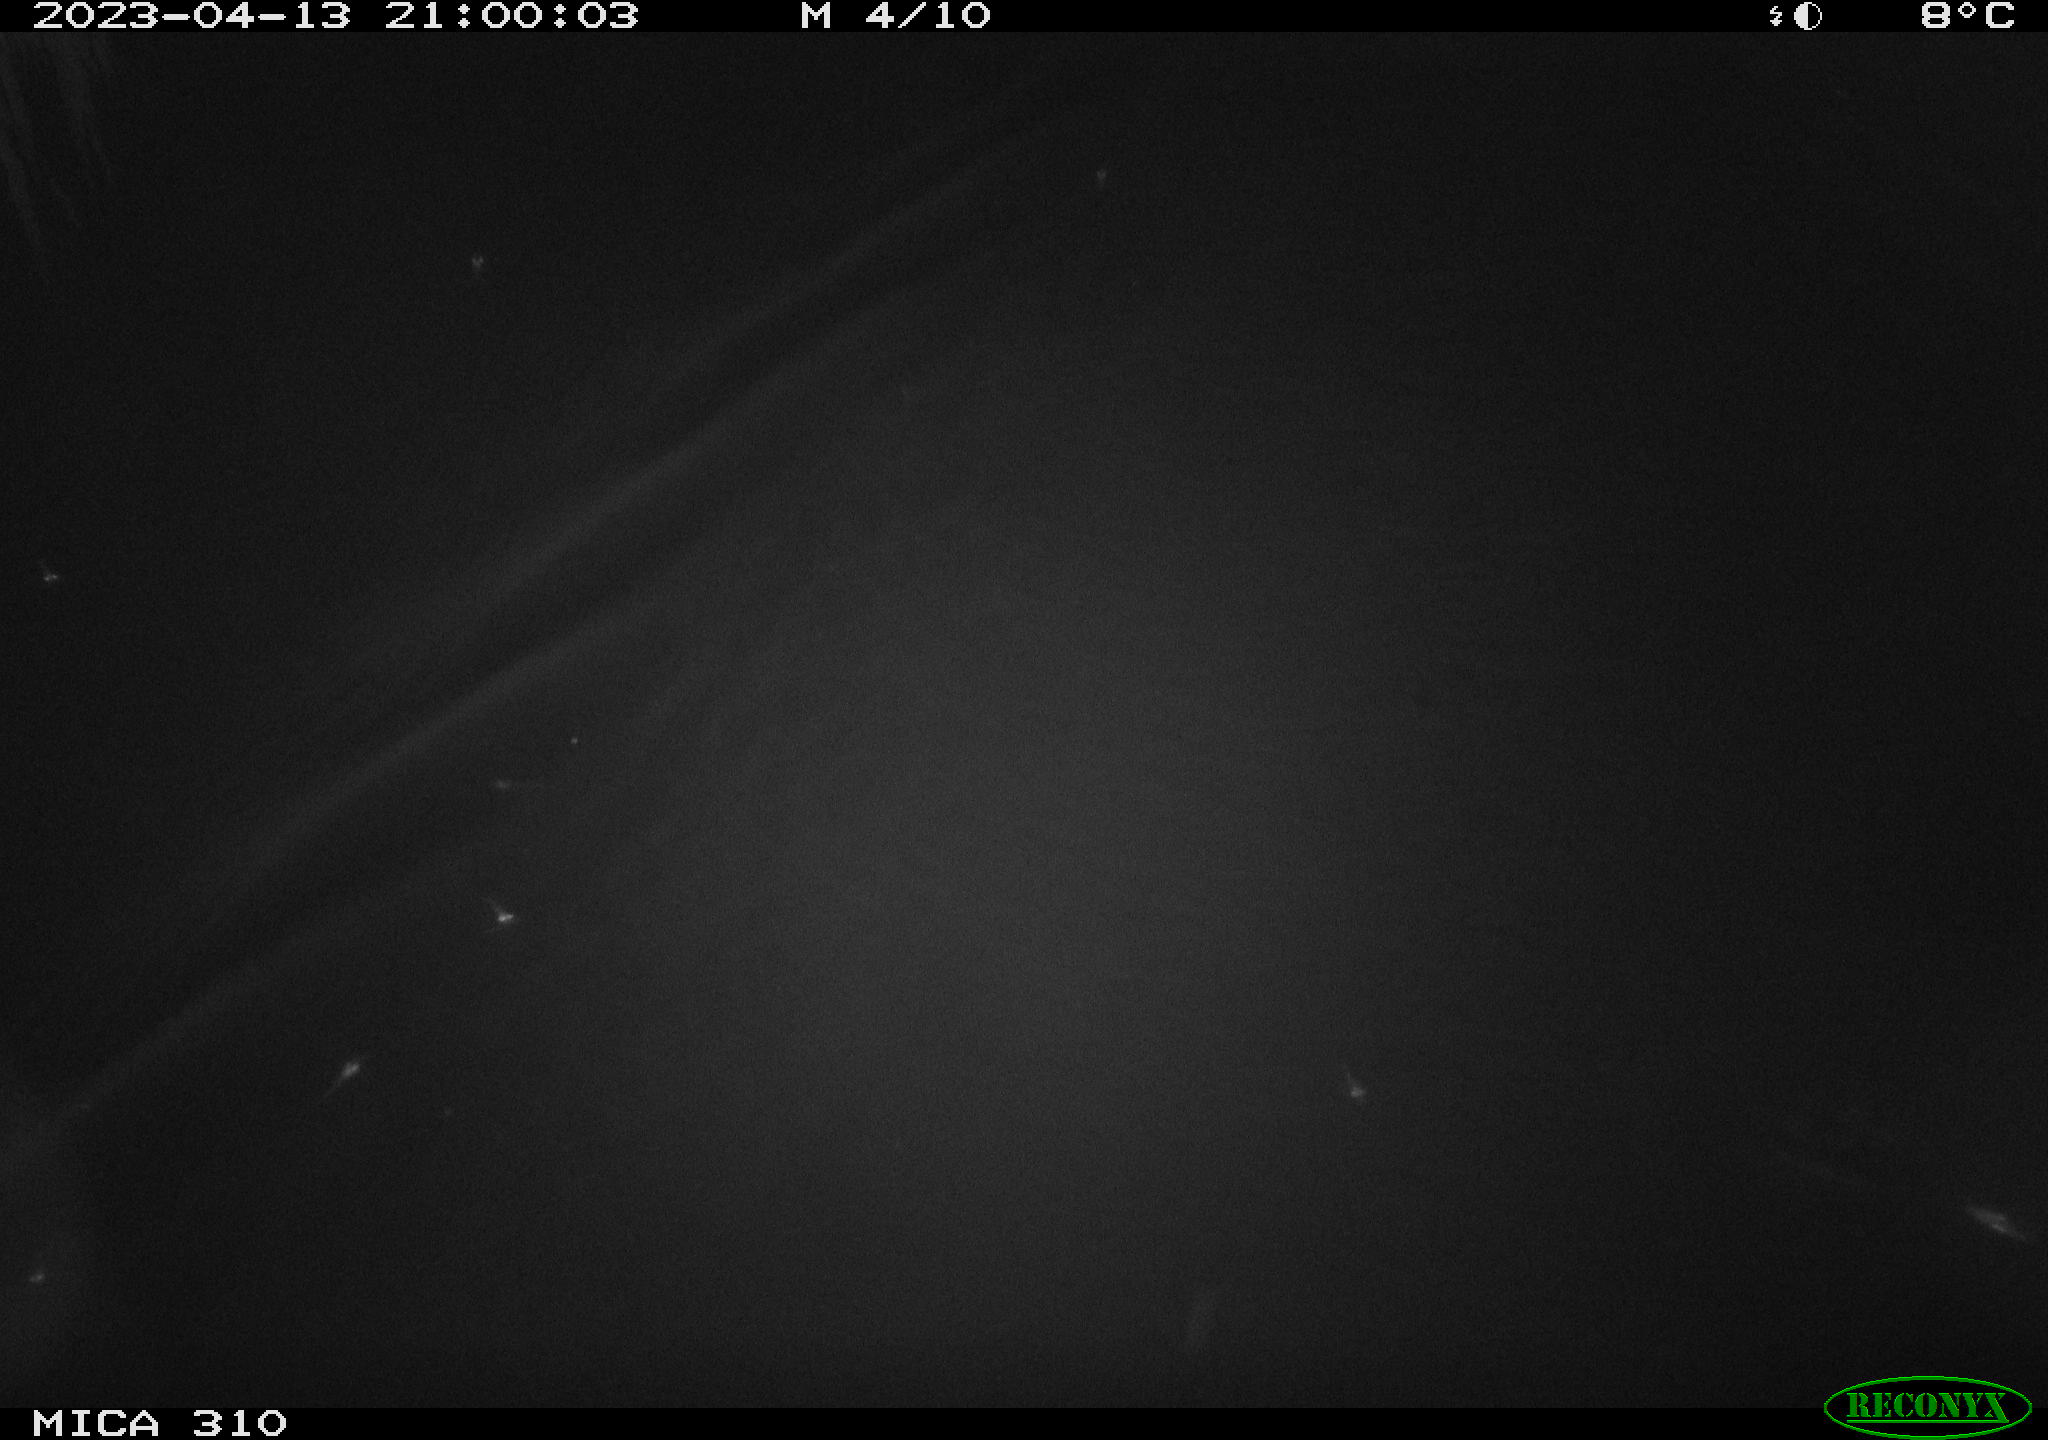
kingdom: Animalia
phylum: Chordata
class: Aves
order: Anseriformes
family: Anatidae
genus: Anas
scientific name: Anas
